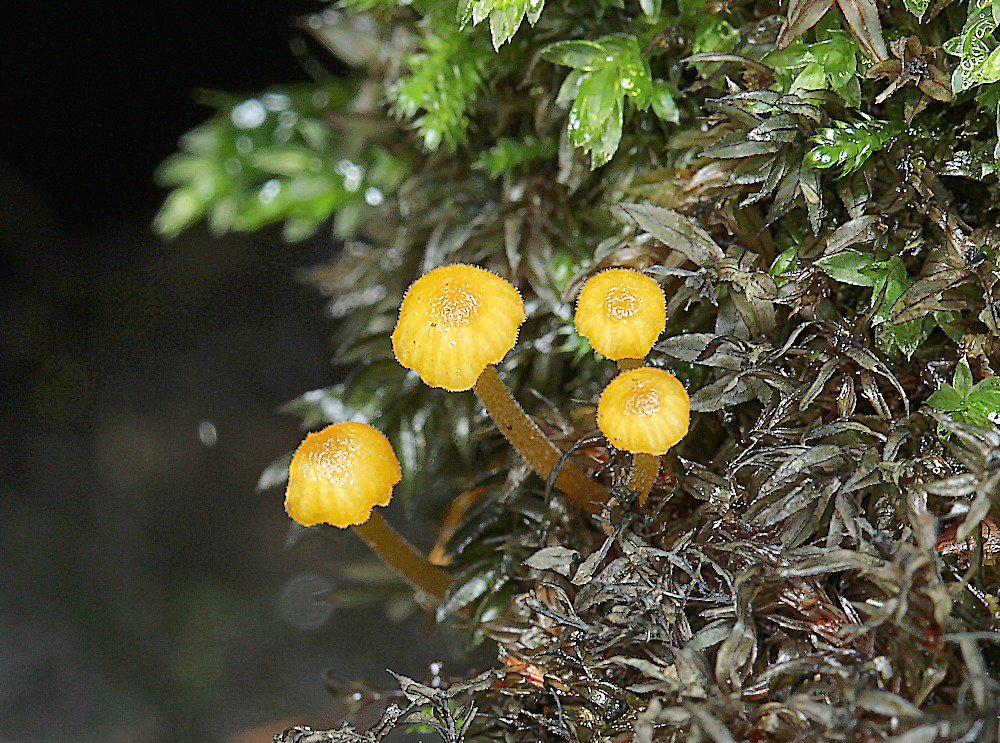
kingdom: Fungi
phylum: Basidiomycota
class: Agaricomycetes
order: Hymenochaetales
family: Rickenellaceae
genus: Rickenella
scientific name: Rickenella fibula
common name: orange mosnavlehat
